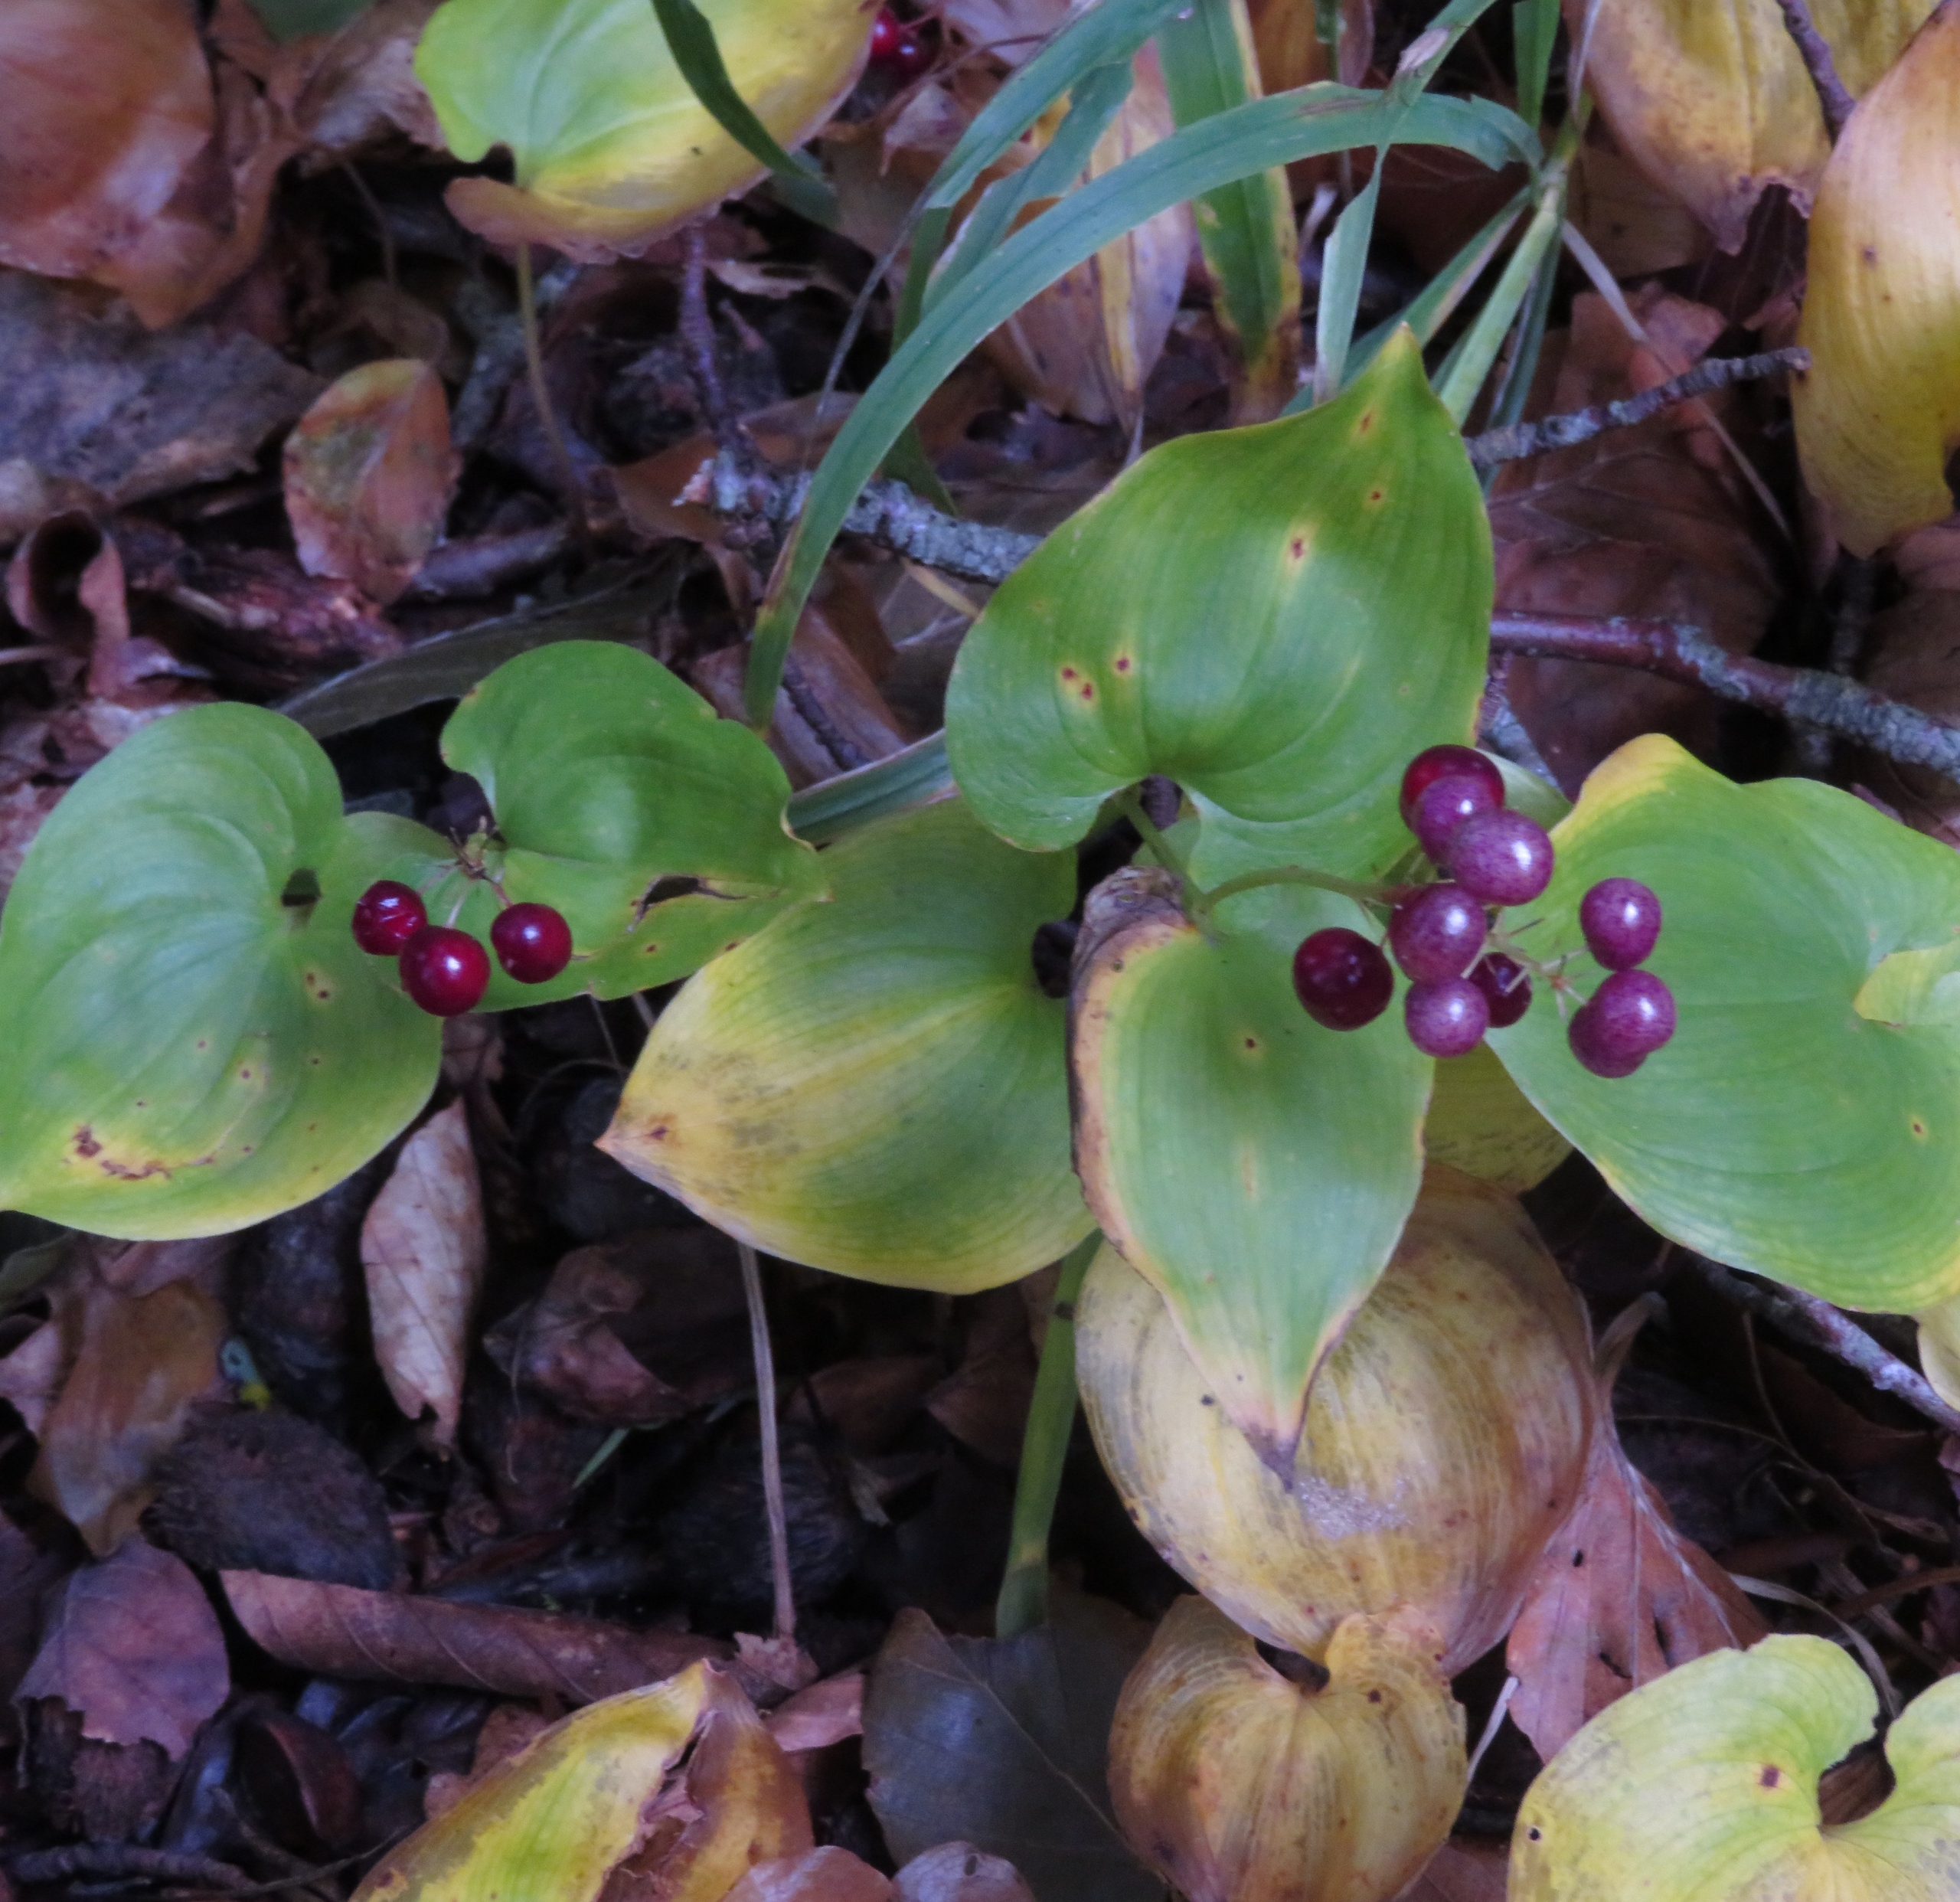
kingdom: Plantae
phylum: Tracheophyta
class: Liliopsida
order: Asparagales
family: Asparagaceae
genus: Maianthemum
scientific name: Maianthemum bifolium
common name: Majblomst
